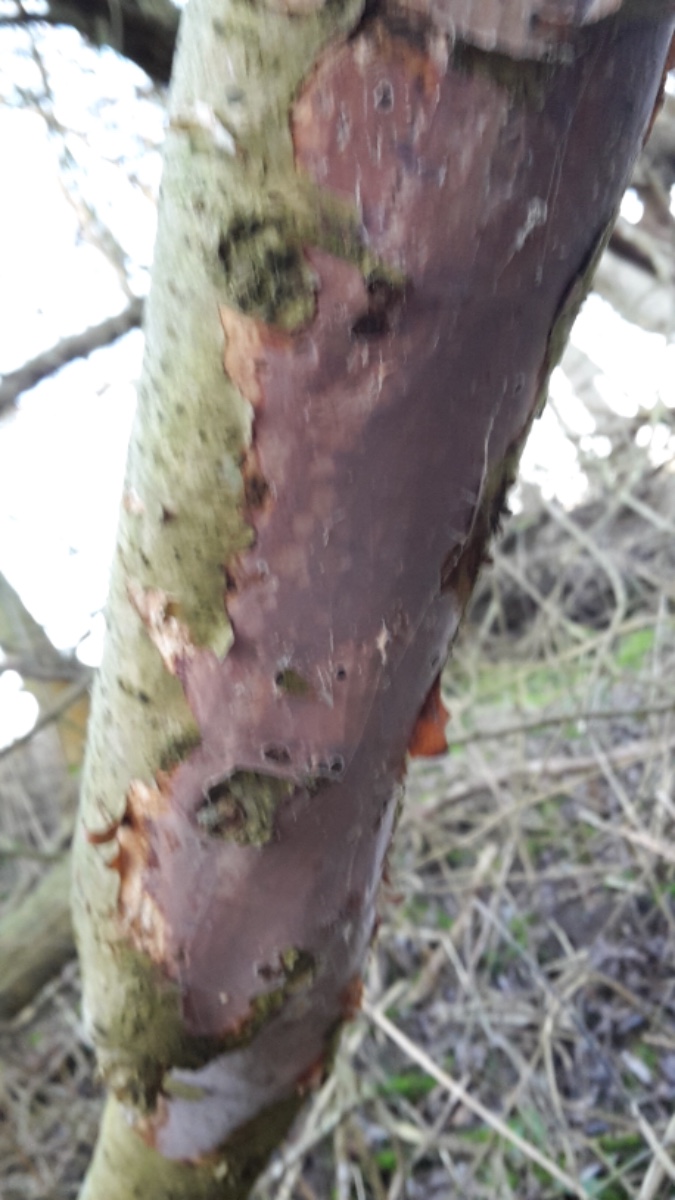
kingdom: Fungi
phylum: Basidiomycota
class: Agaricomycetes
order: Corticiales
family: Vuilleminiaceae
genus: Vuilleminia
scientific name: Vuilleminia coryli
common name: hassel-barksprænger
